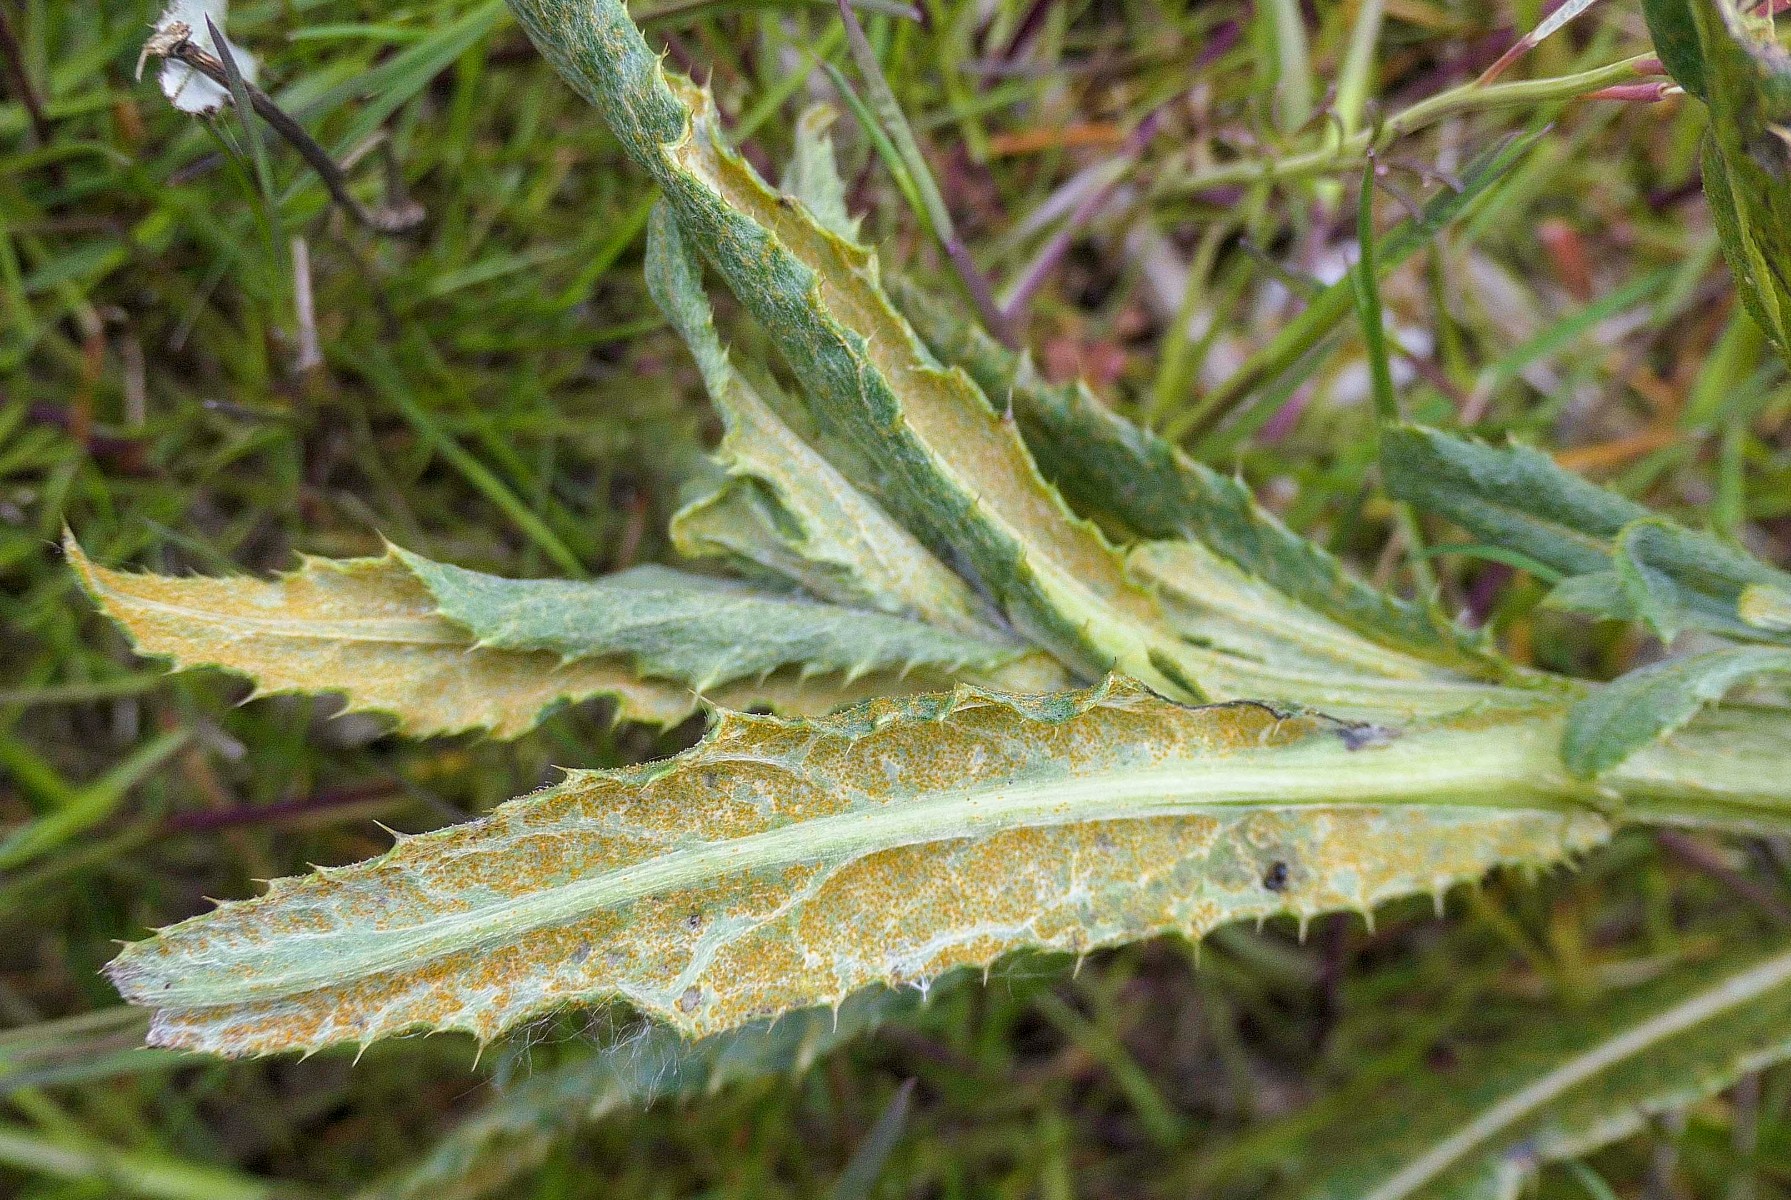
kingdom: Fungi
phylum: Basidiomycota
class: Pucciniomycetes
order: Pucciniales
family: Pucciniaceae
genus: Puccinia
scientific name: Puccinia suaveolens
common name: tidsel-tvecellerust
